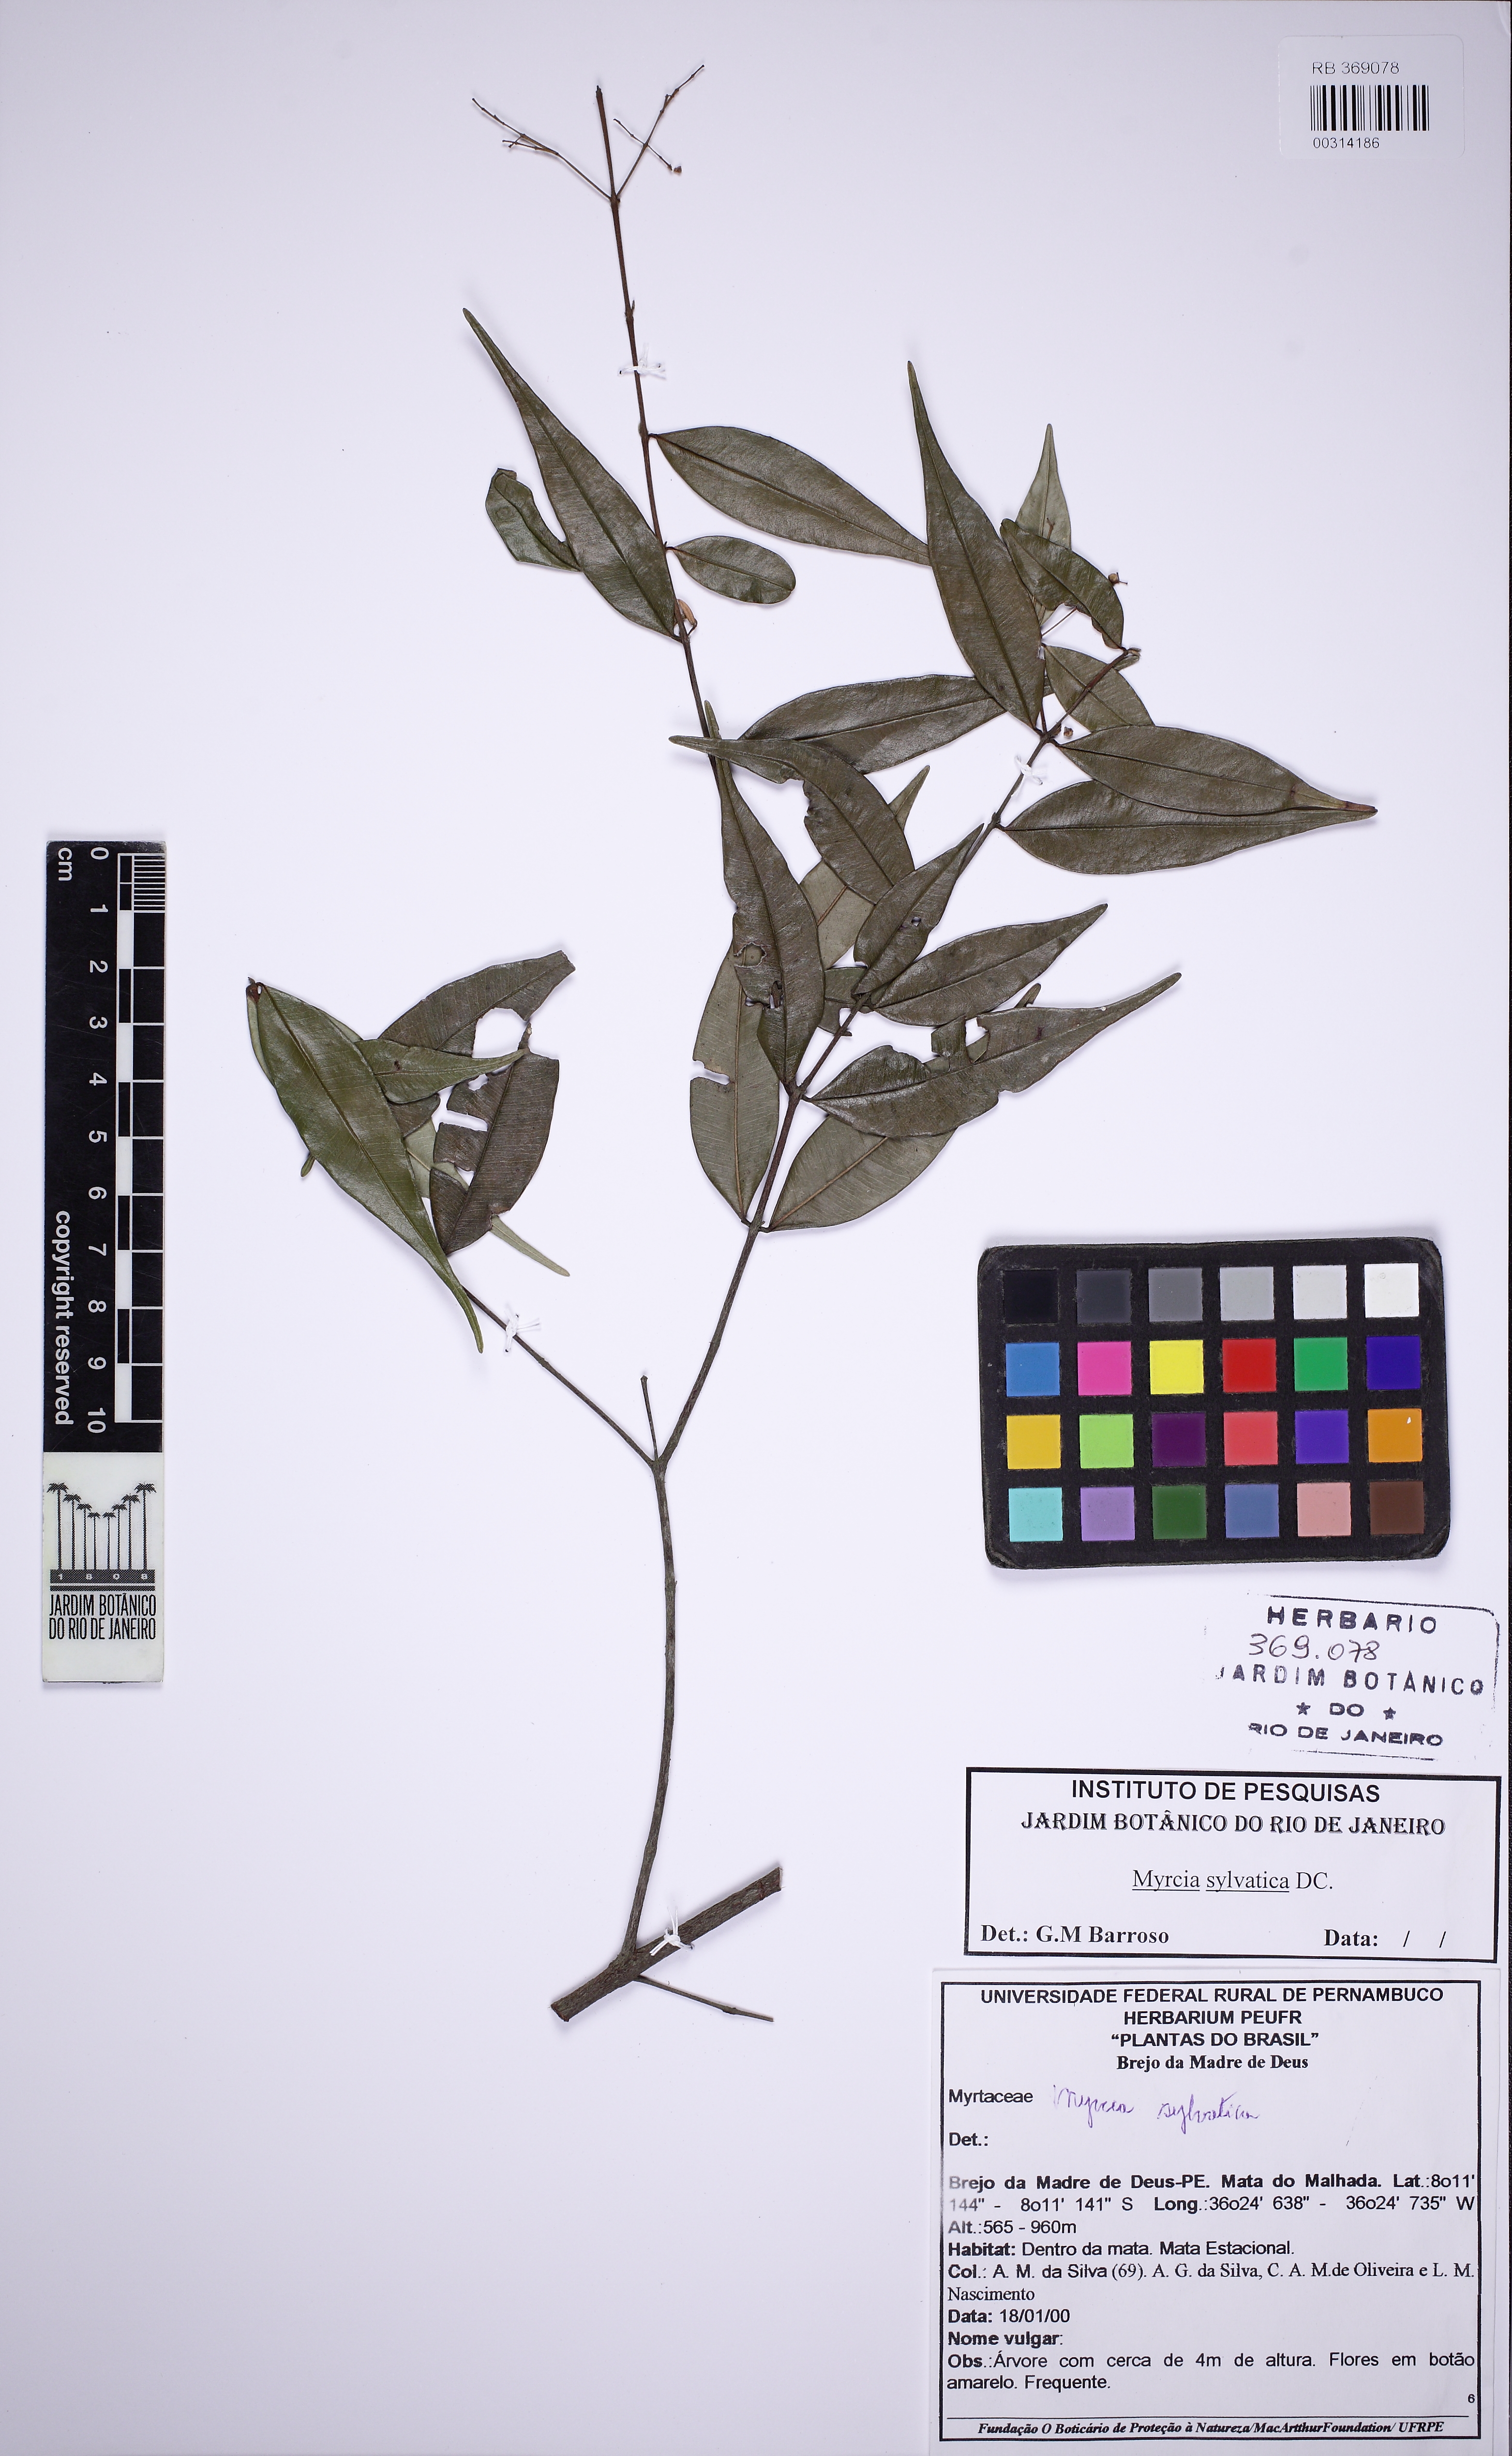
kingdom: Plantae
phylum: Tracheophyta
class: Magnoliopsida
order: Myrtales
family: Myrtaceae
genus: Myrcia
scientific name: Myrcia sylvatica
